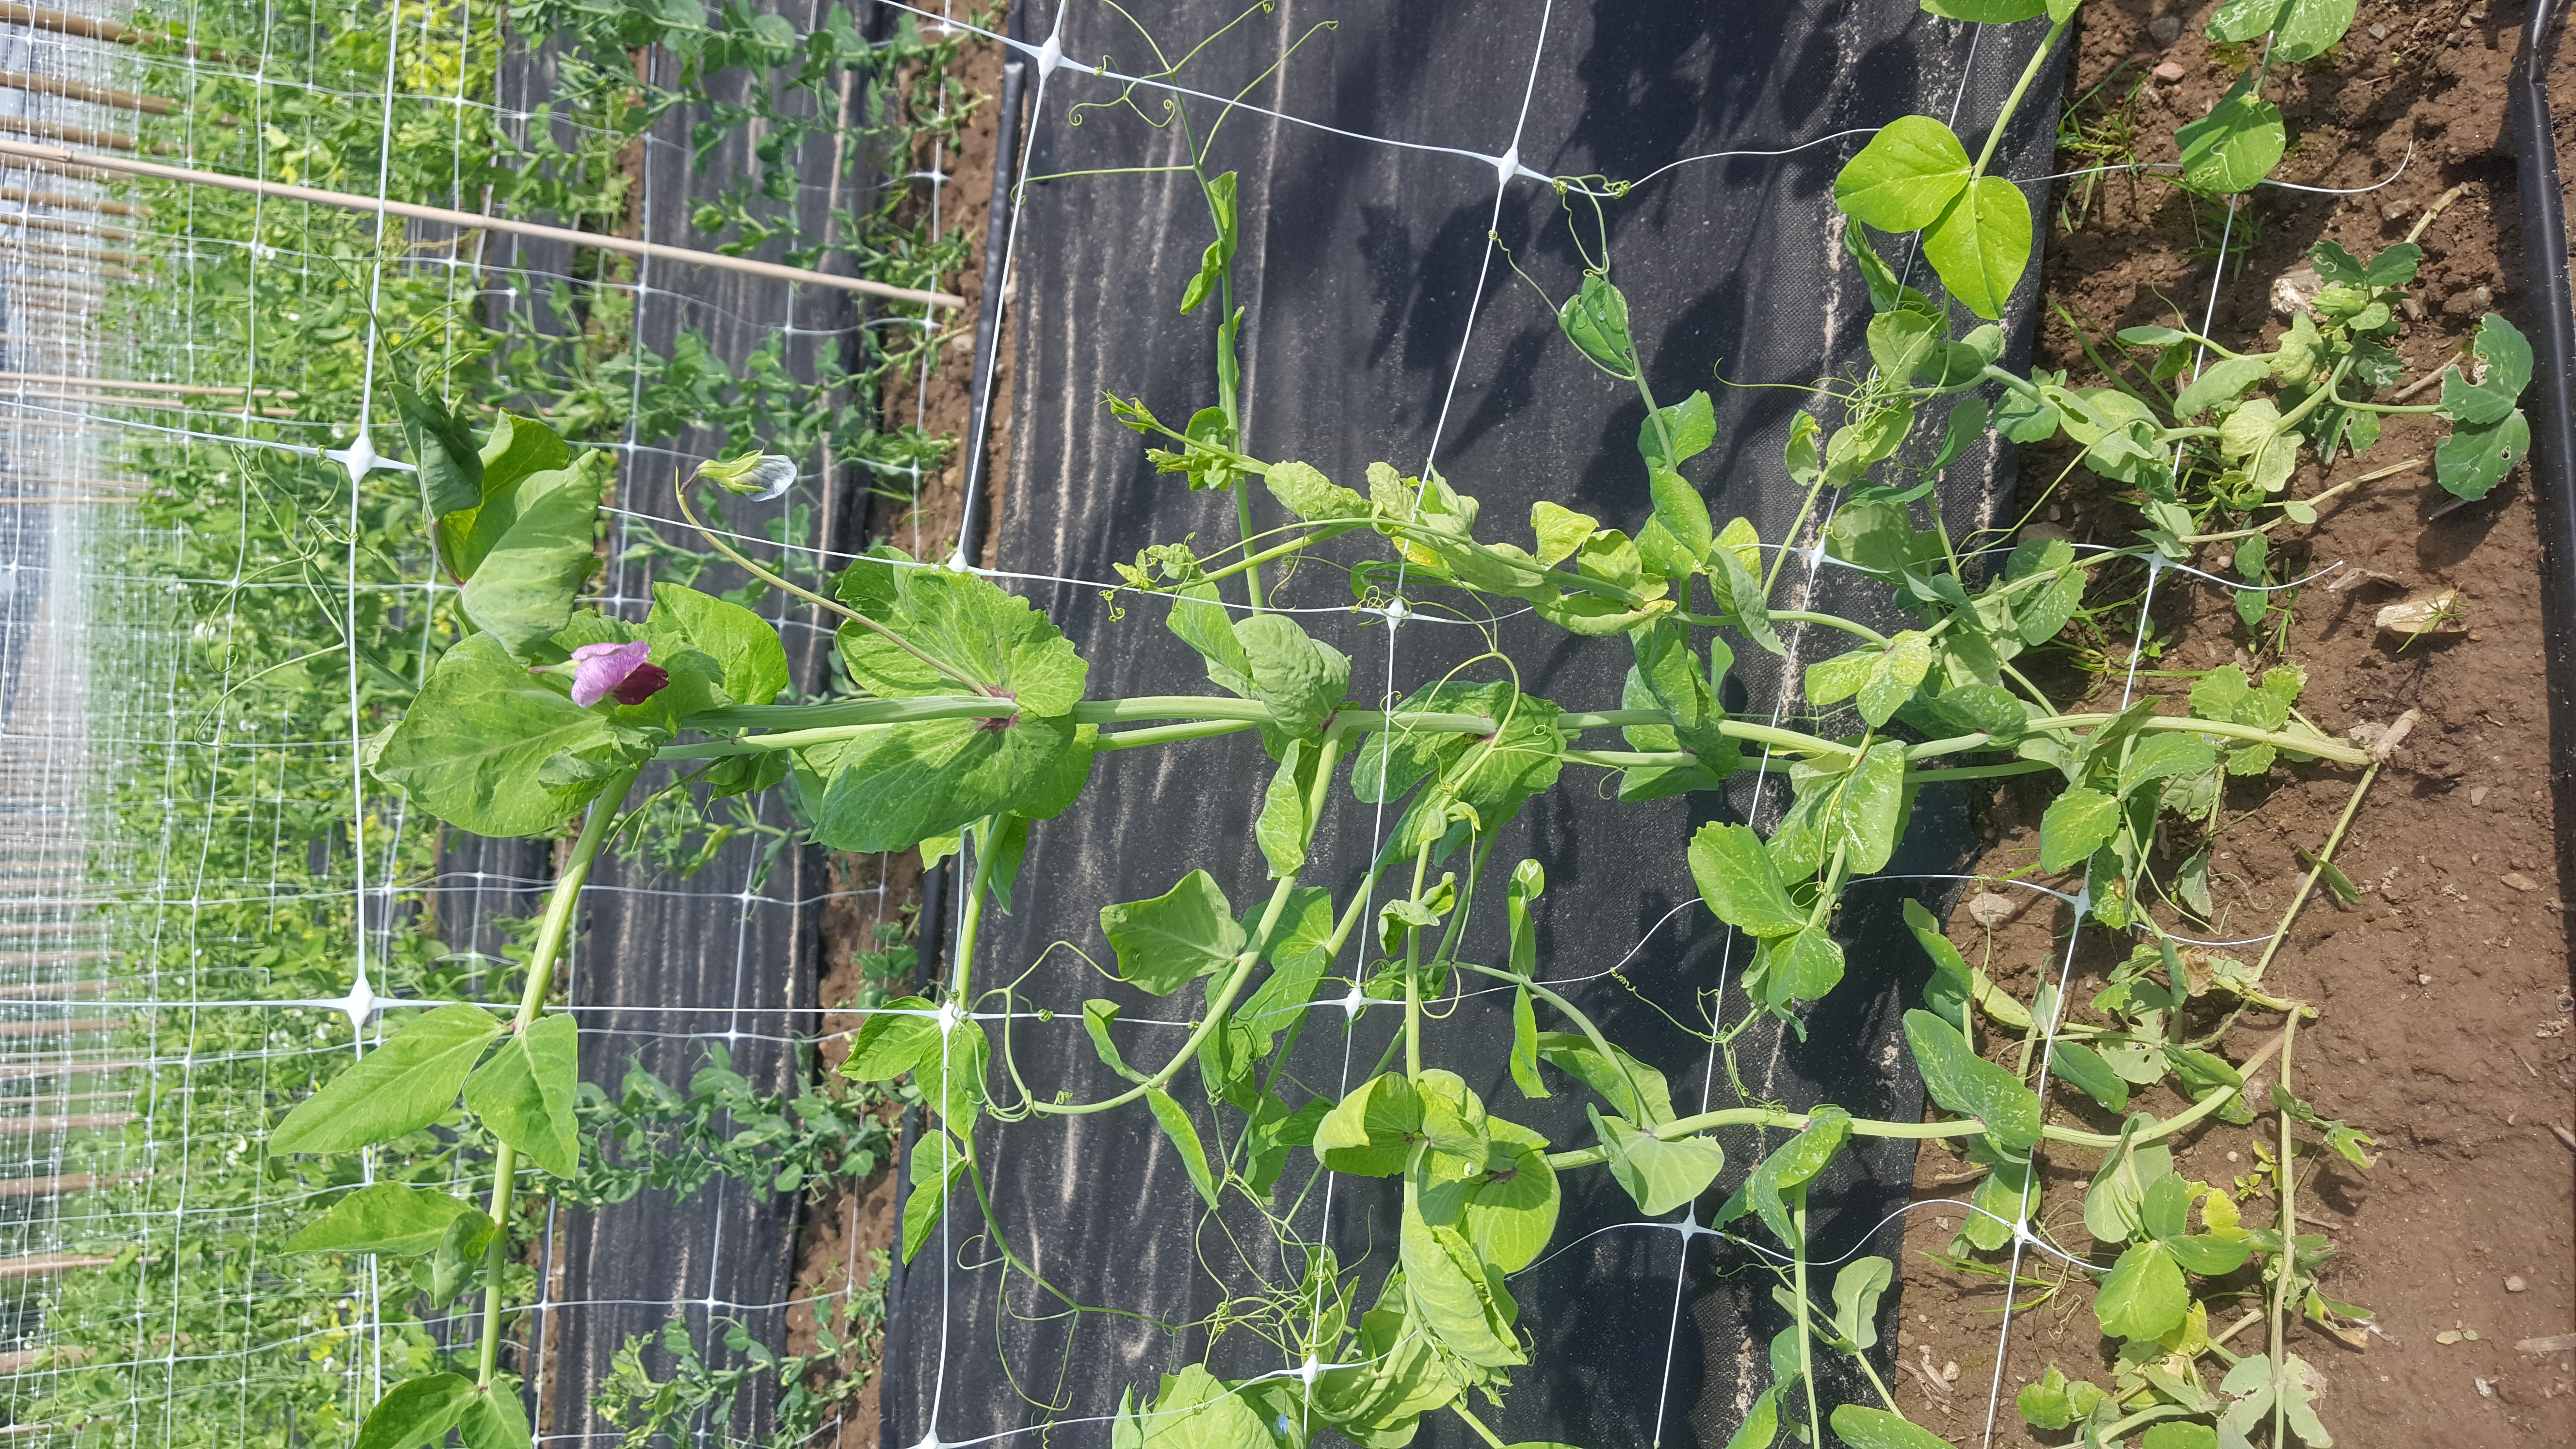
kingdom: Plantae
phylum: Tracheophyta
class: Magnoliopsida
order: Fabales
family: Fabaceae
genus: Lathyrus
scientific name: Lathyrus oleraceus
